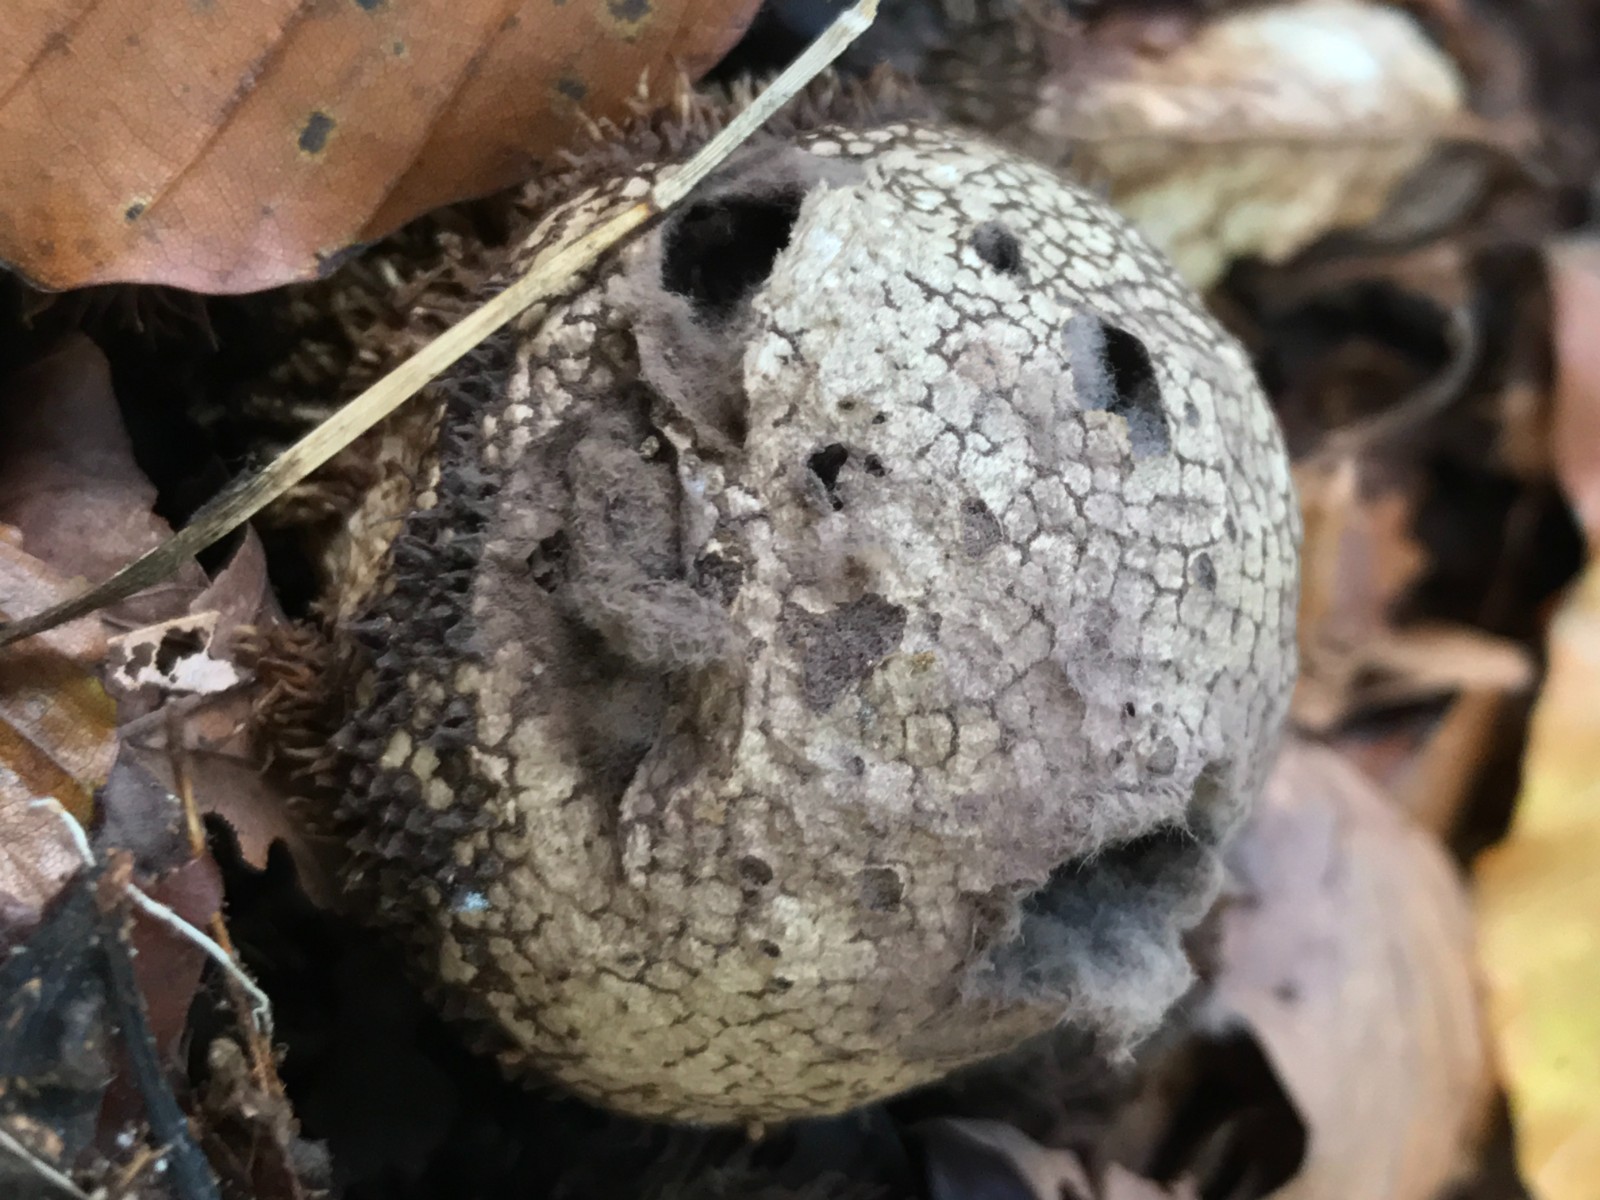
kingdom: Fungi
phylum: Basidiomycota
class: Agaricomycetes
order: Agaricales
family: Lycoperdaceae
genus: Lycoperdon
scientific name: Lycoperdon echinatum
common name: pindsvine-støvbold
